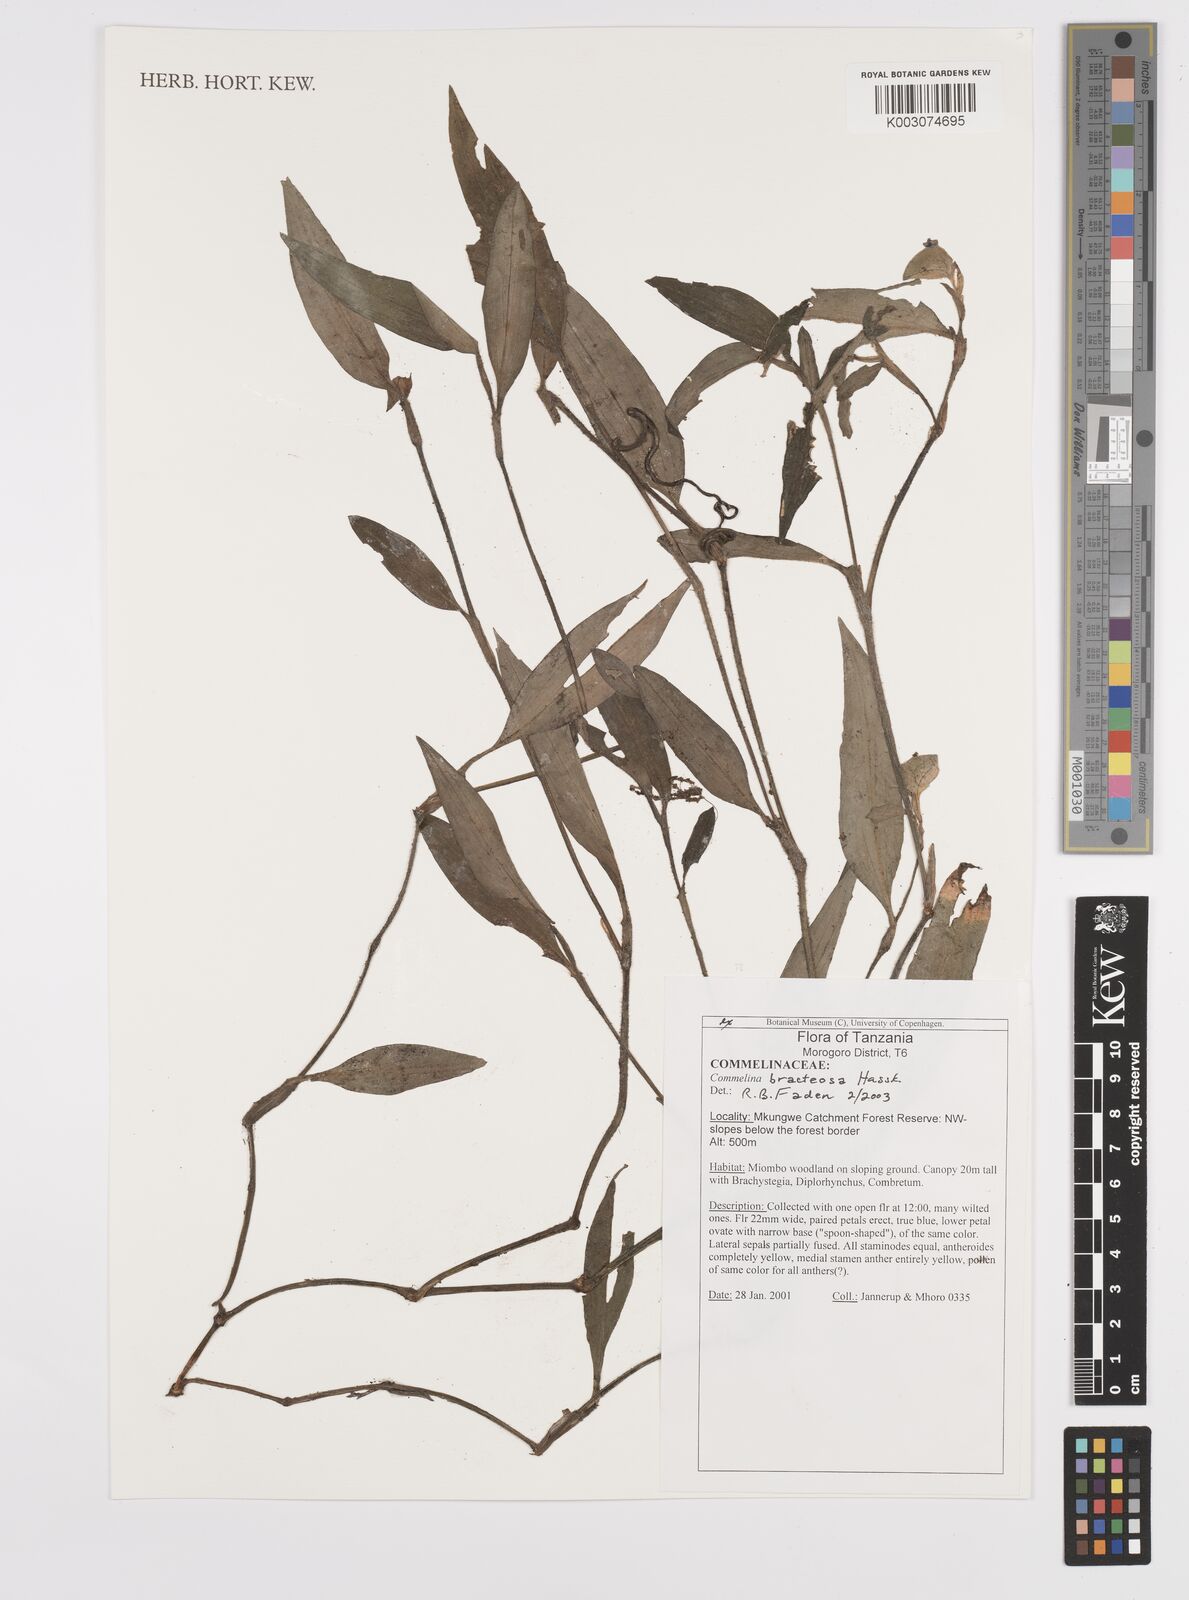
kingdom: Plantae
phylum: Tracheophyta
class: Liliopsida
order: Commelinales
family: Commelinaceae
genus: Commelina
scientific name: Commelina bracteosa
